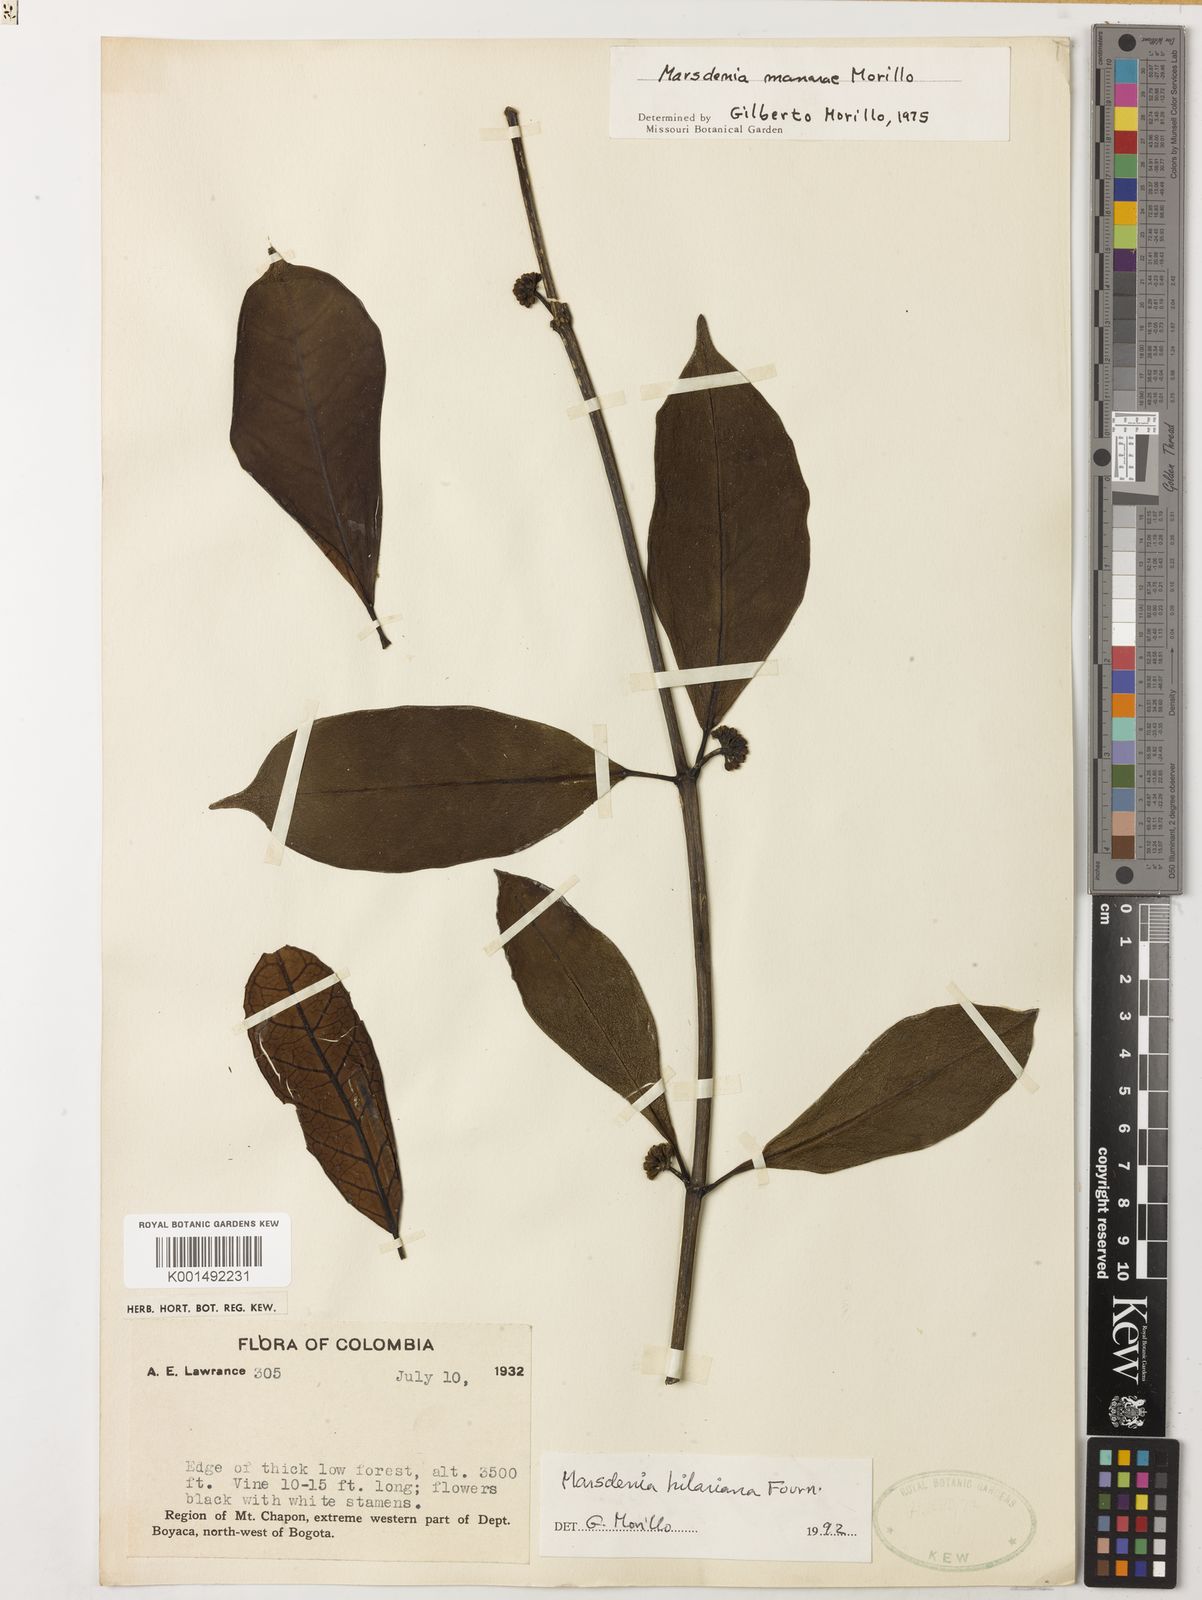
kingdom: Plantae
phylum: Tracheophyta
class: Magnoliopsida
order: Gentianales
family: Apocynaceae
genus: Ruehssia
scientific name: Ruehssia hilariana
